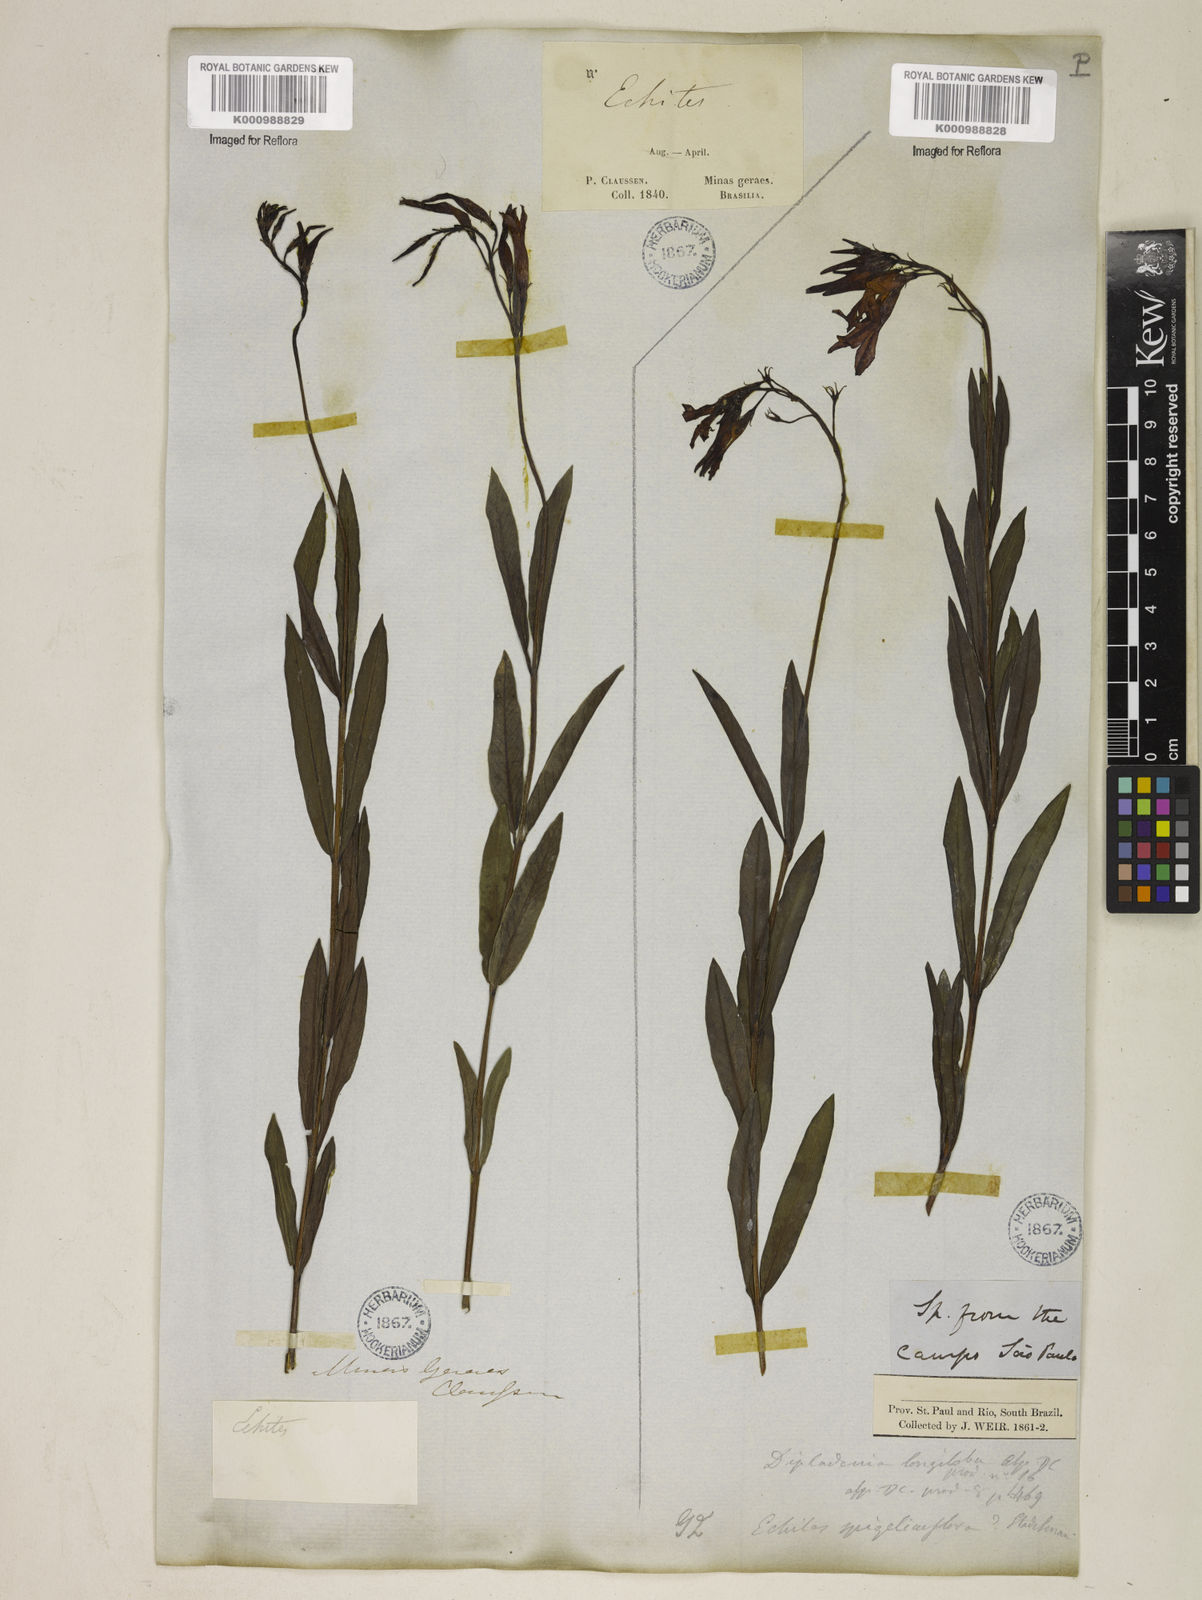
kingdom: Plantae
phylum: Tracheophyta
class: Magnoliopsida
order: Gentianales
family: Apocynaceae
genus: Mandevilla
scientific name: Mandevilla spigeliiflora
